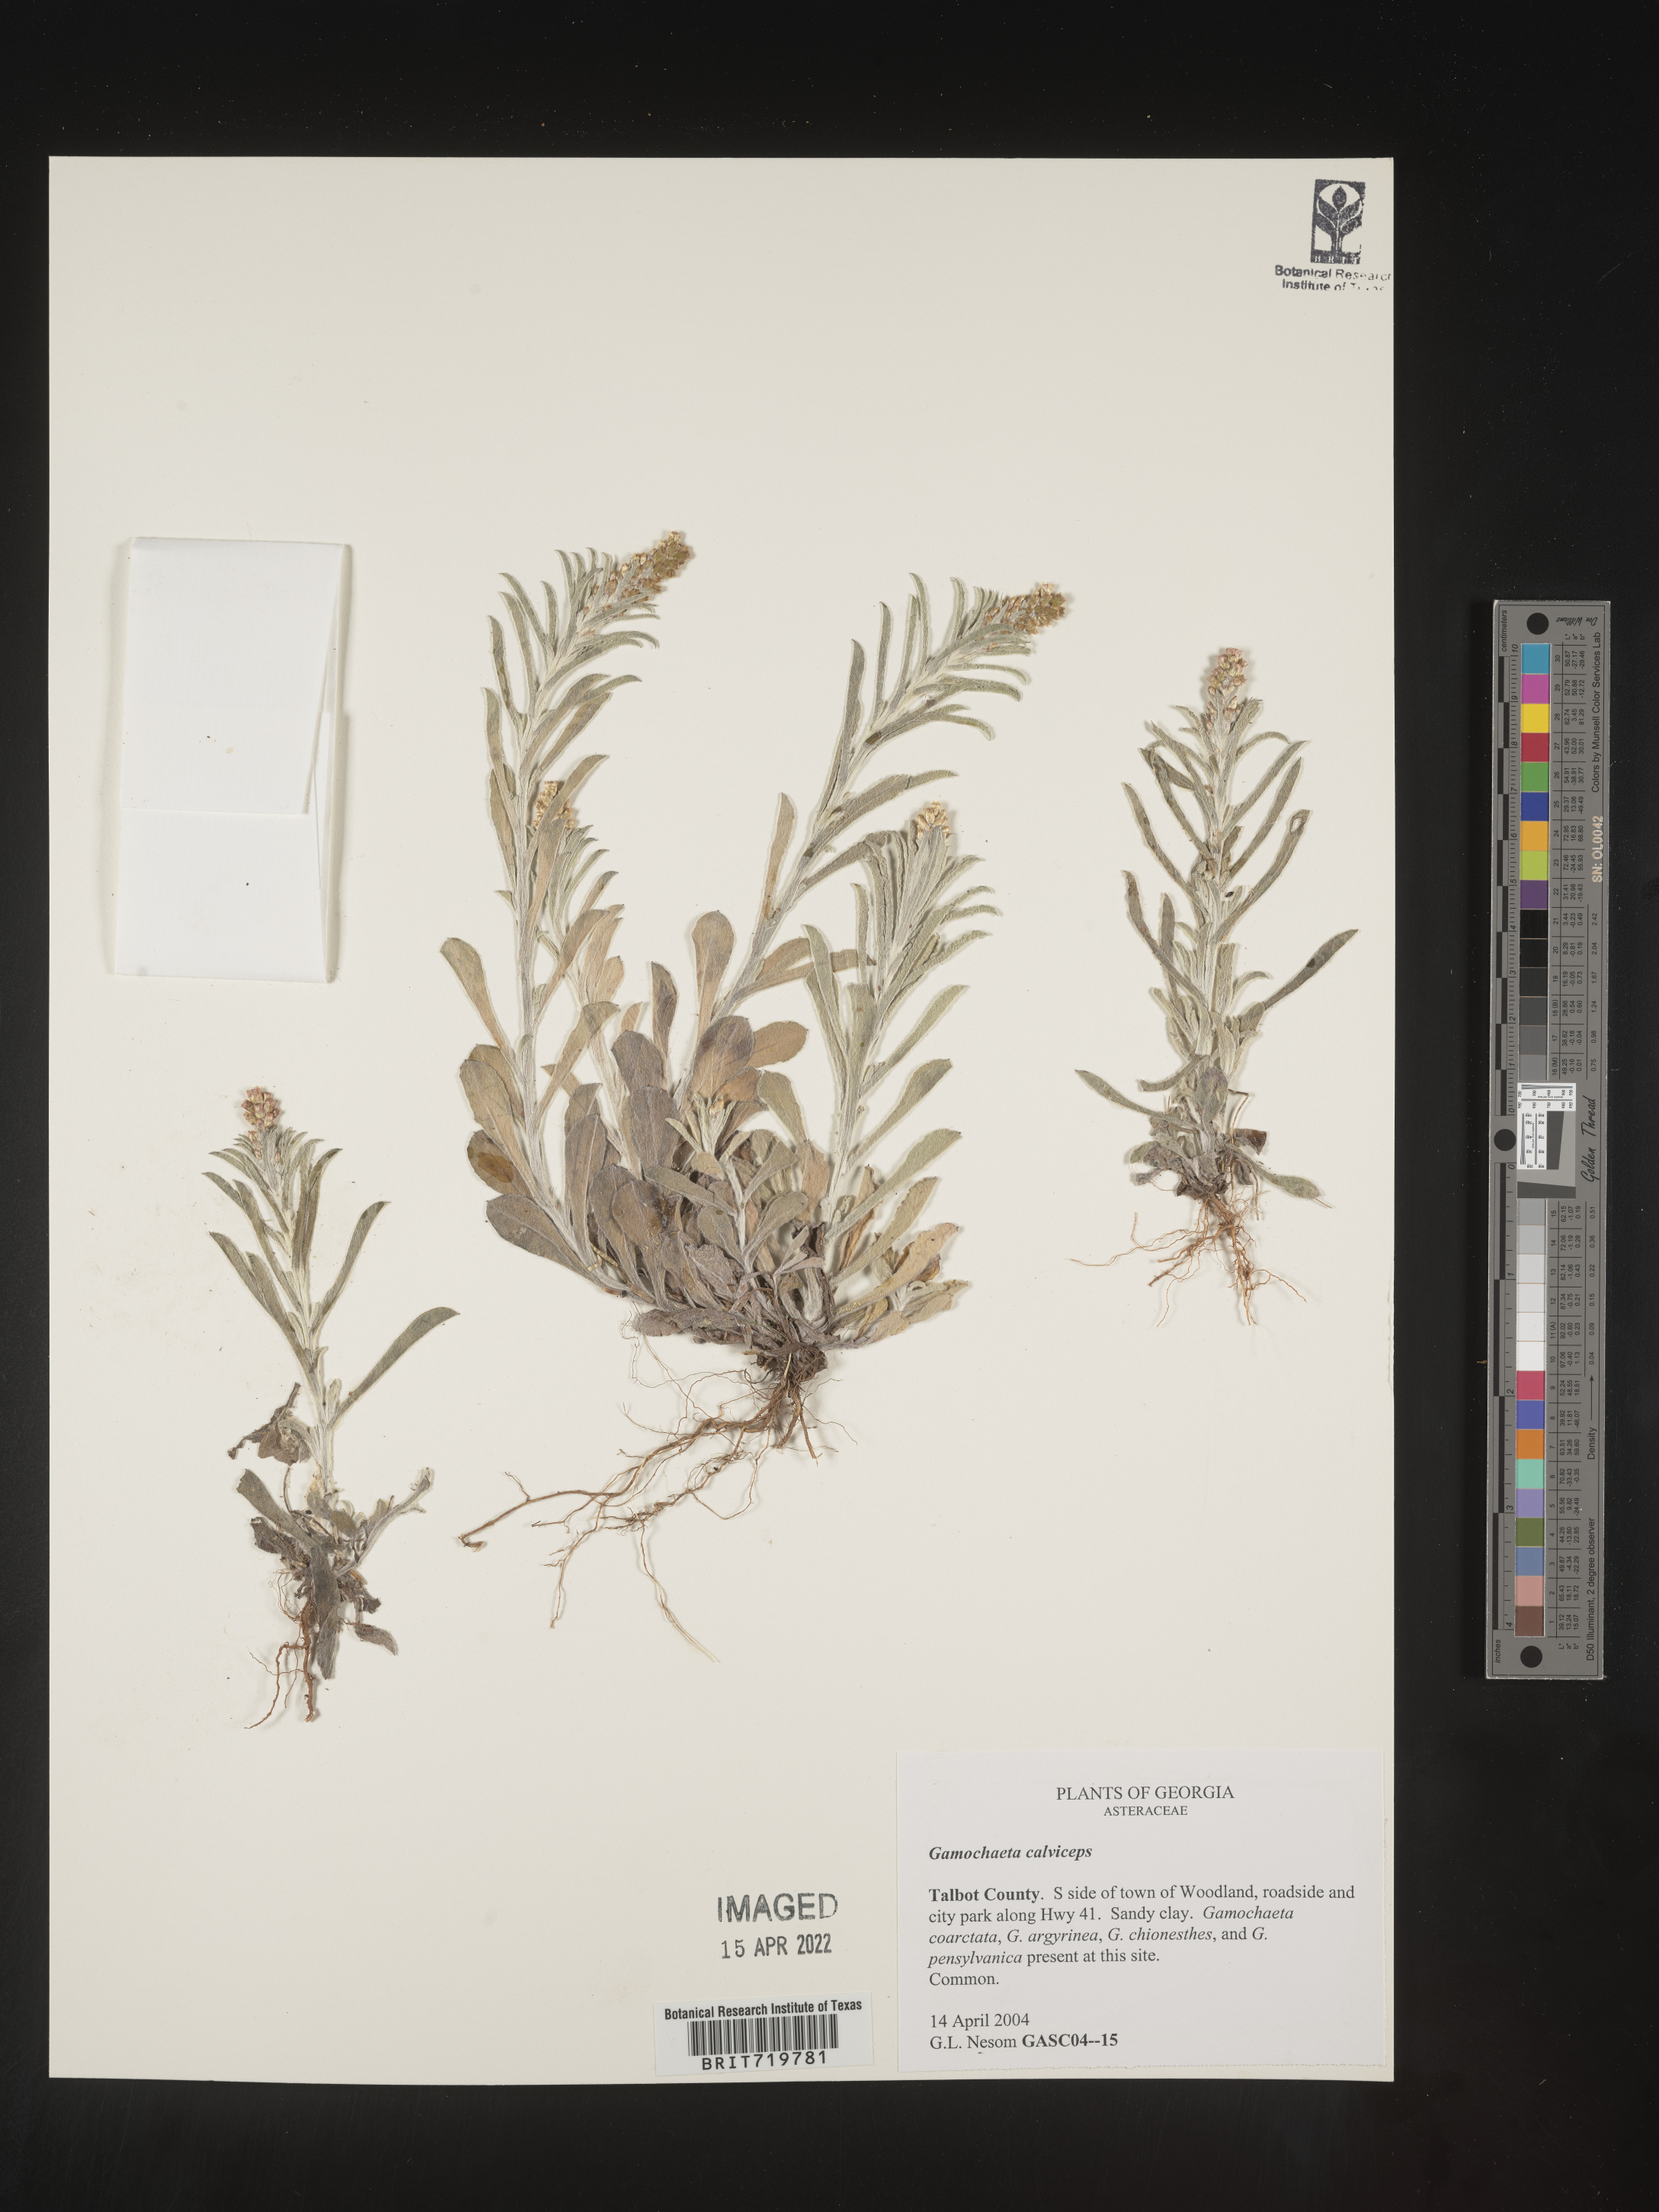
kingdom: Plantae
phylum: Tracheophyta
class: Magnoliopsida
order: Asterales
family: Asteraceae
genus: Gamochaeta
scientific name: Gamochaeta calviceps
